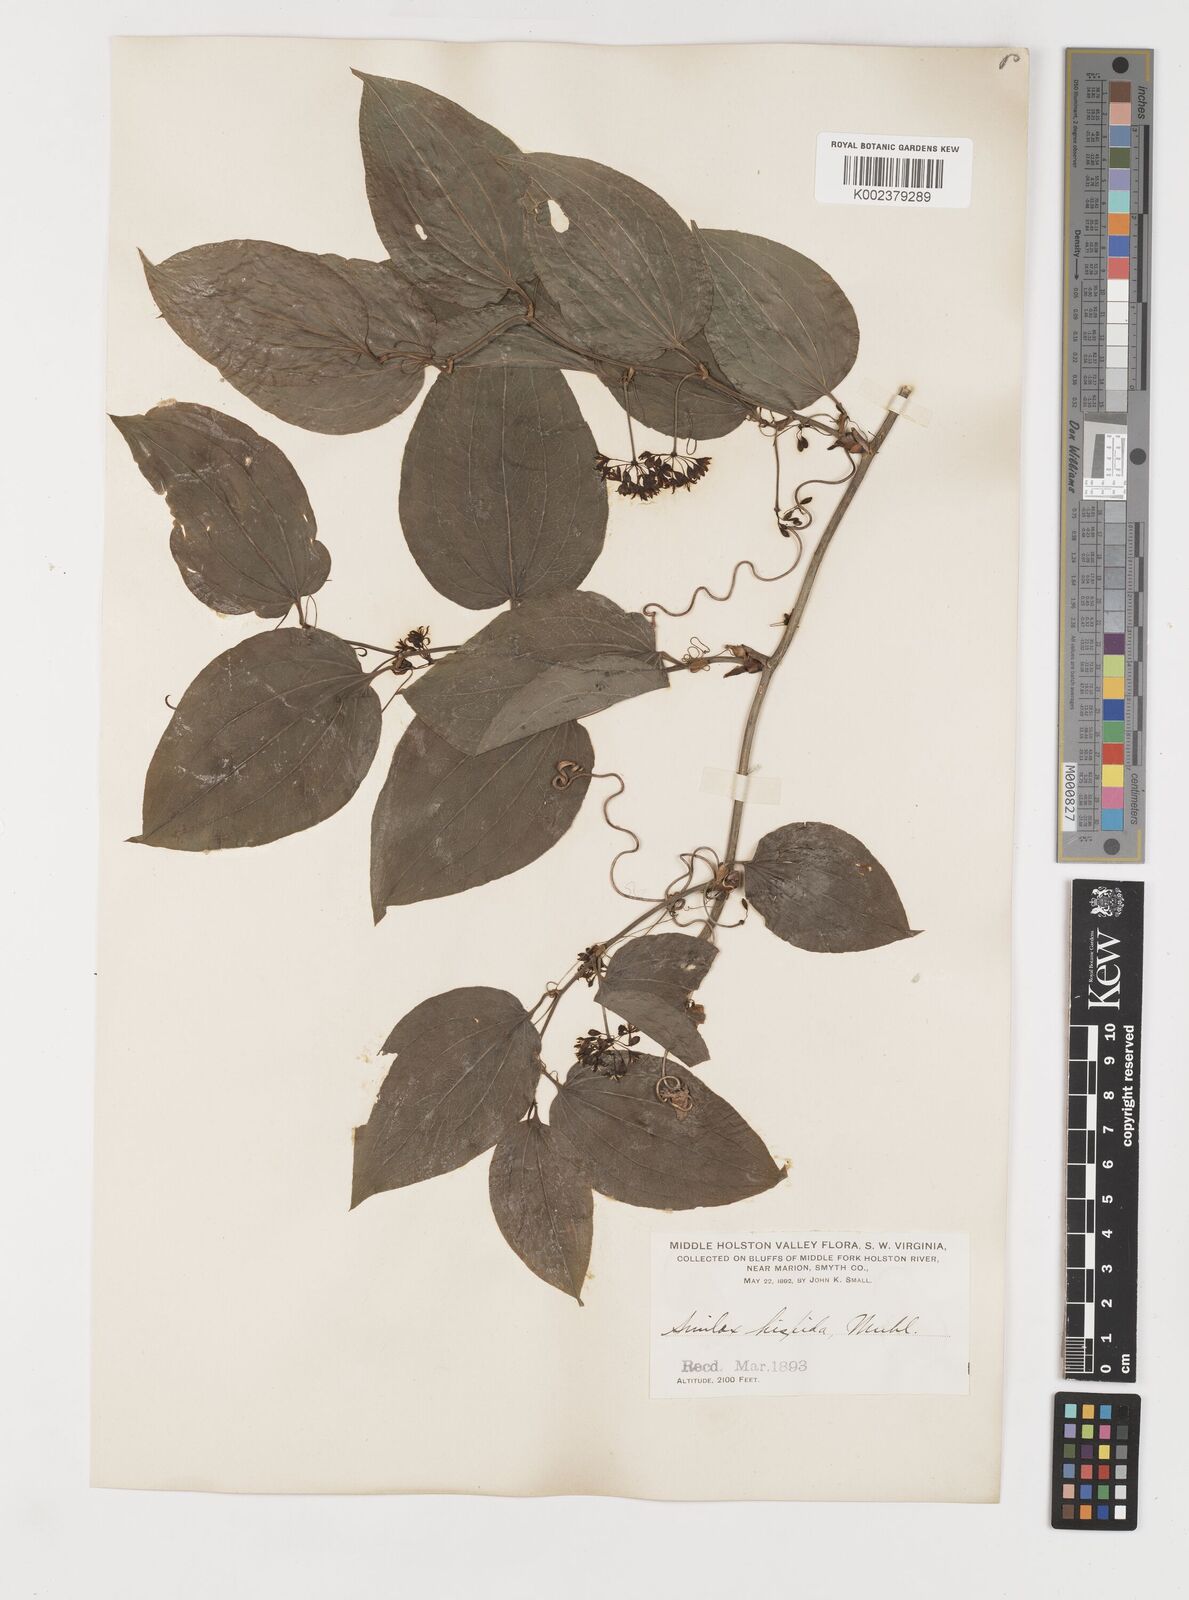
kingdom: Plantae
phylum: Tracheophyta
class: Liliopsida
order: Liliales
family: Smilacaceae
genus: Smilax
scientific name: Smilax tamnoides
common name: Hellfetter
